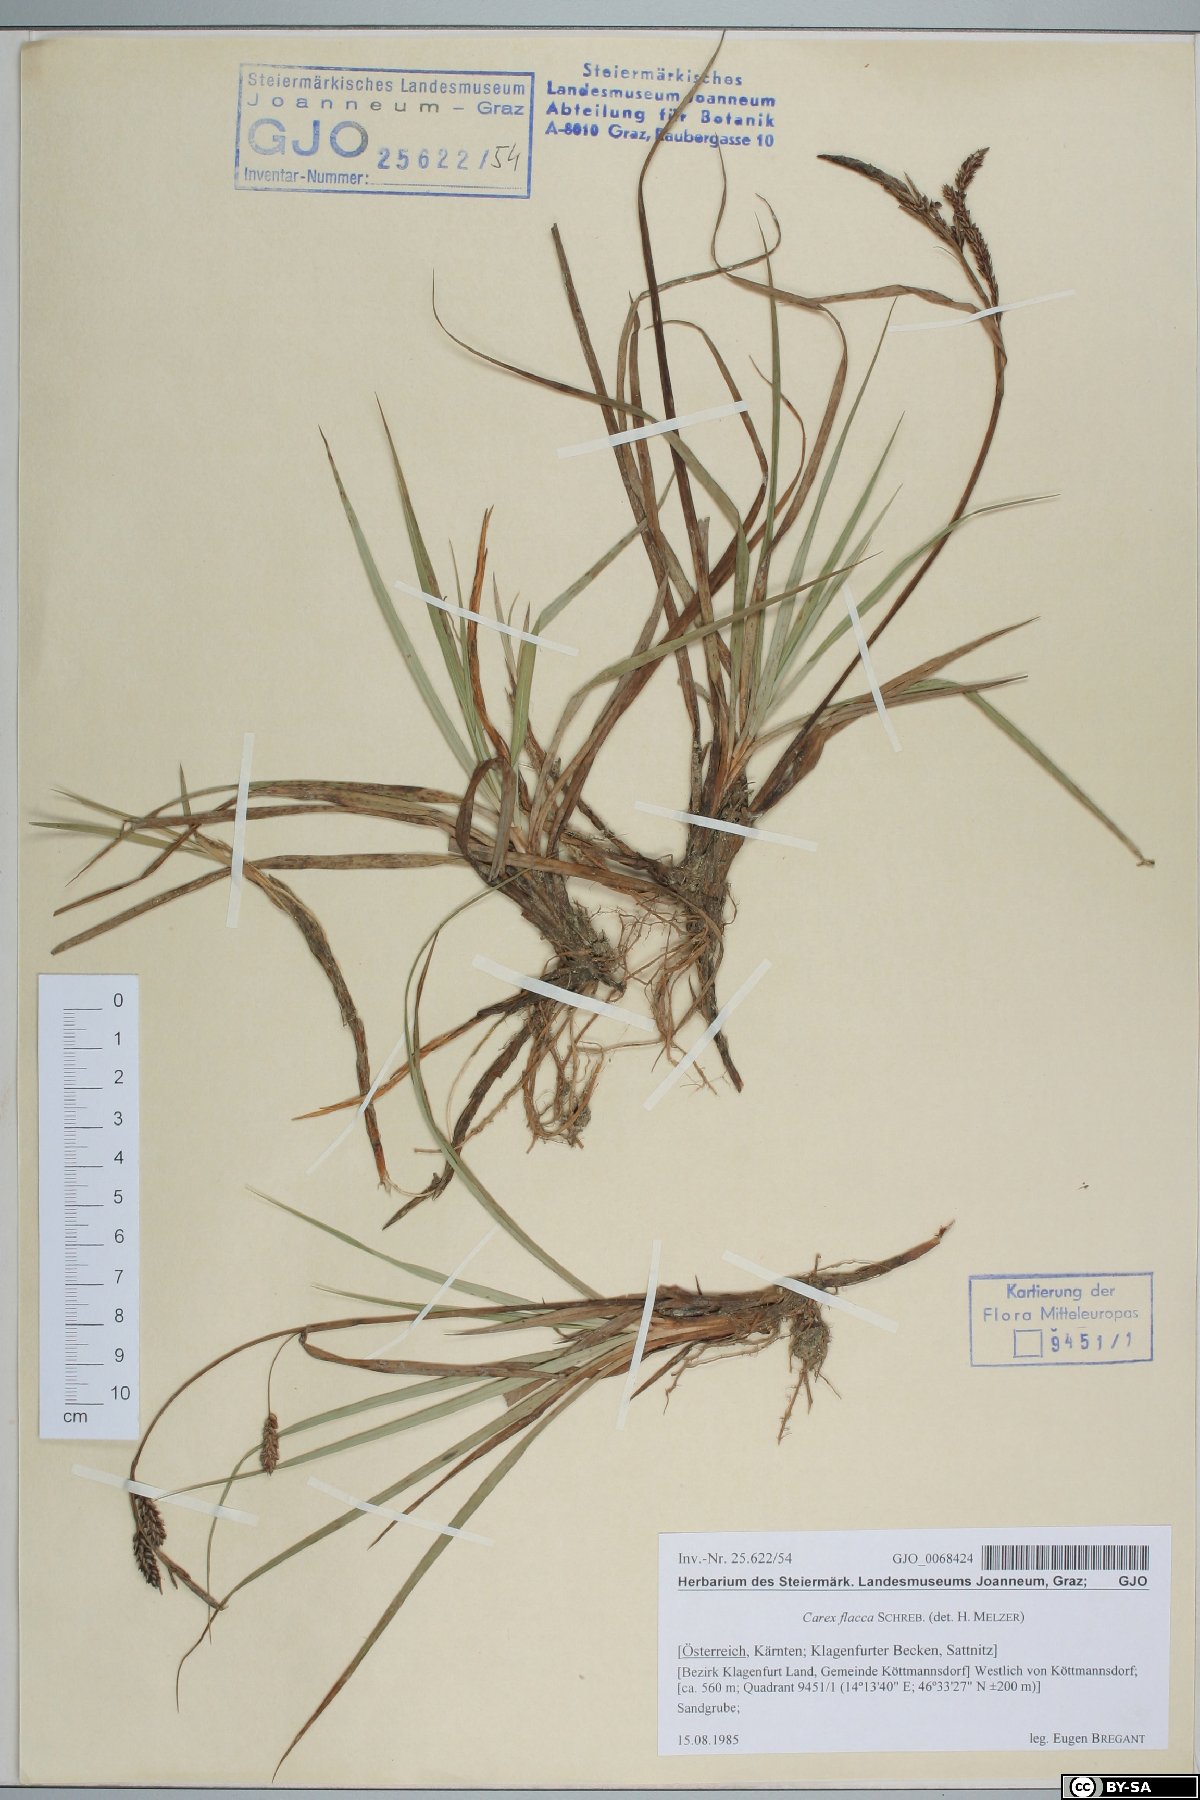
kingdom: Plantae
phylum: Tracheophyta
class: Liliopsida
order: Poales
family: Cyperaceae
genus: Carex
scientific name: Carex flacca
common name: Glaucous sedge
